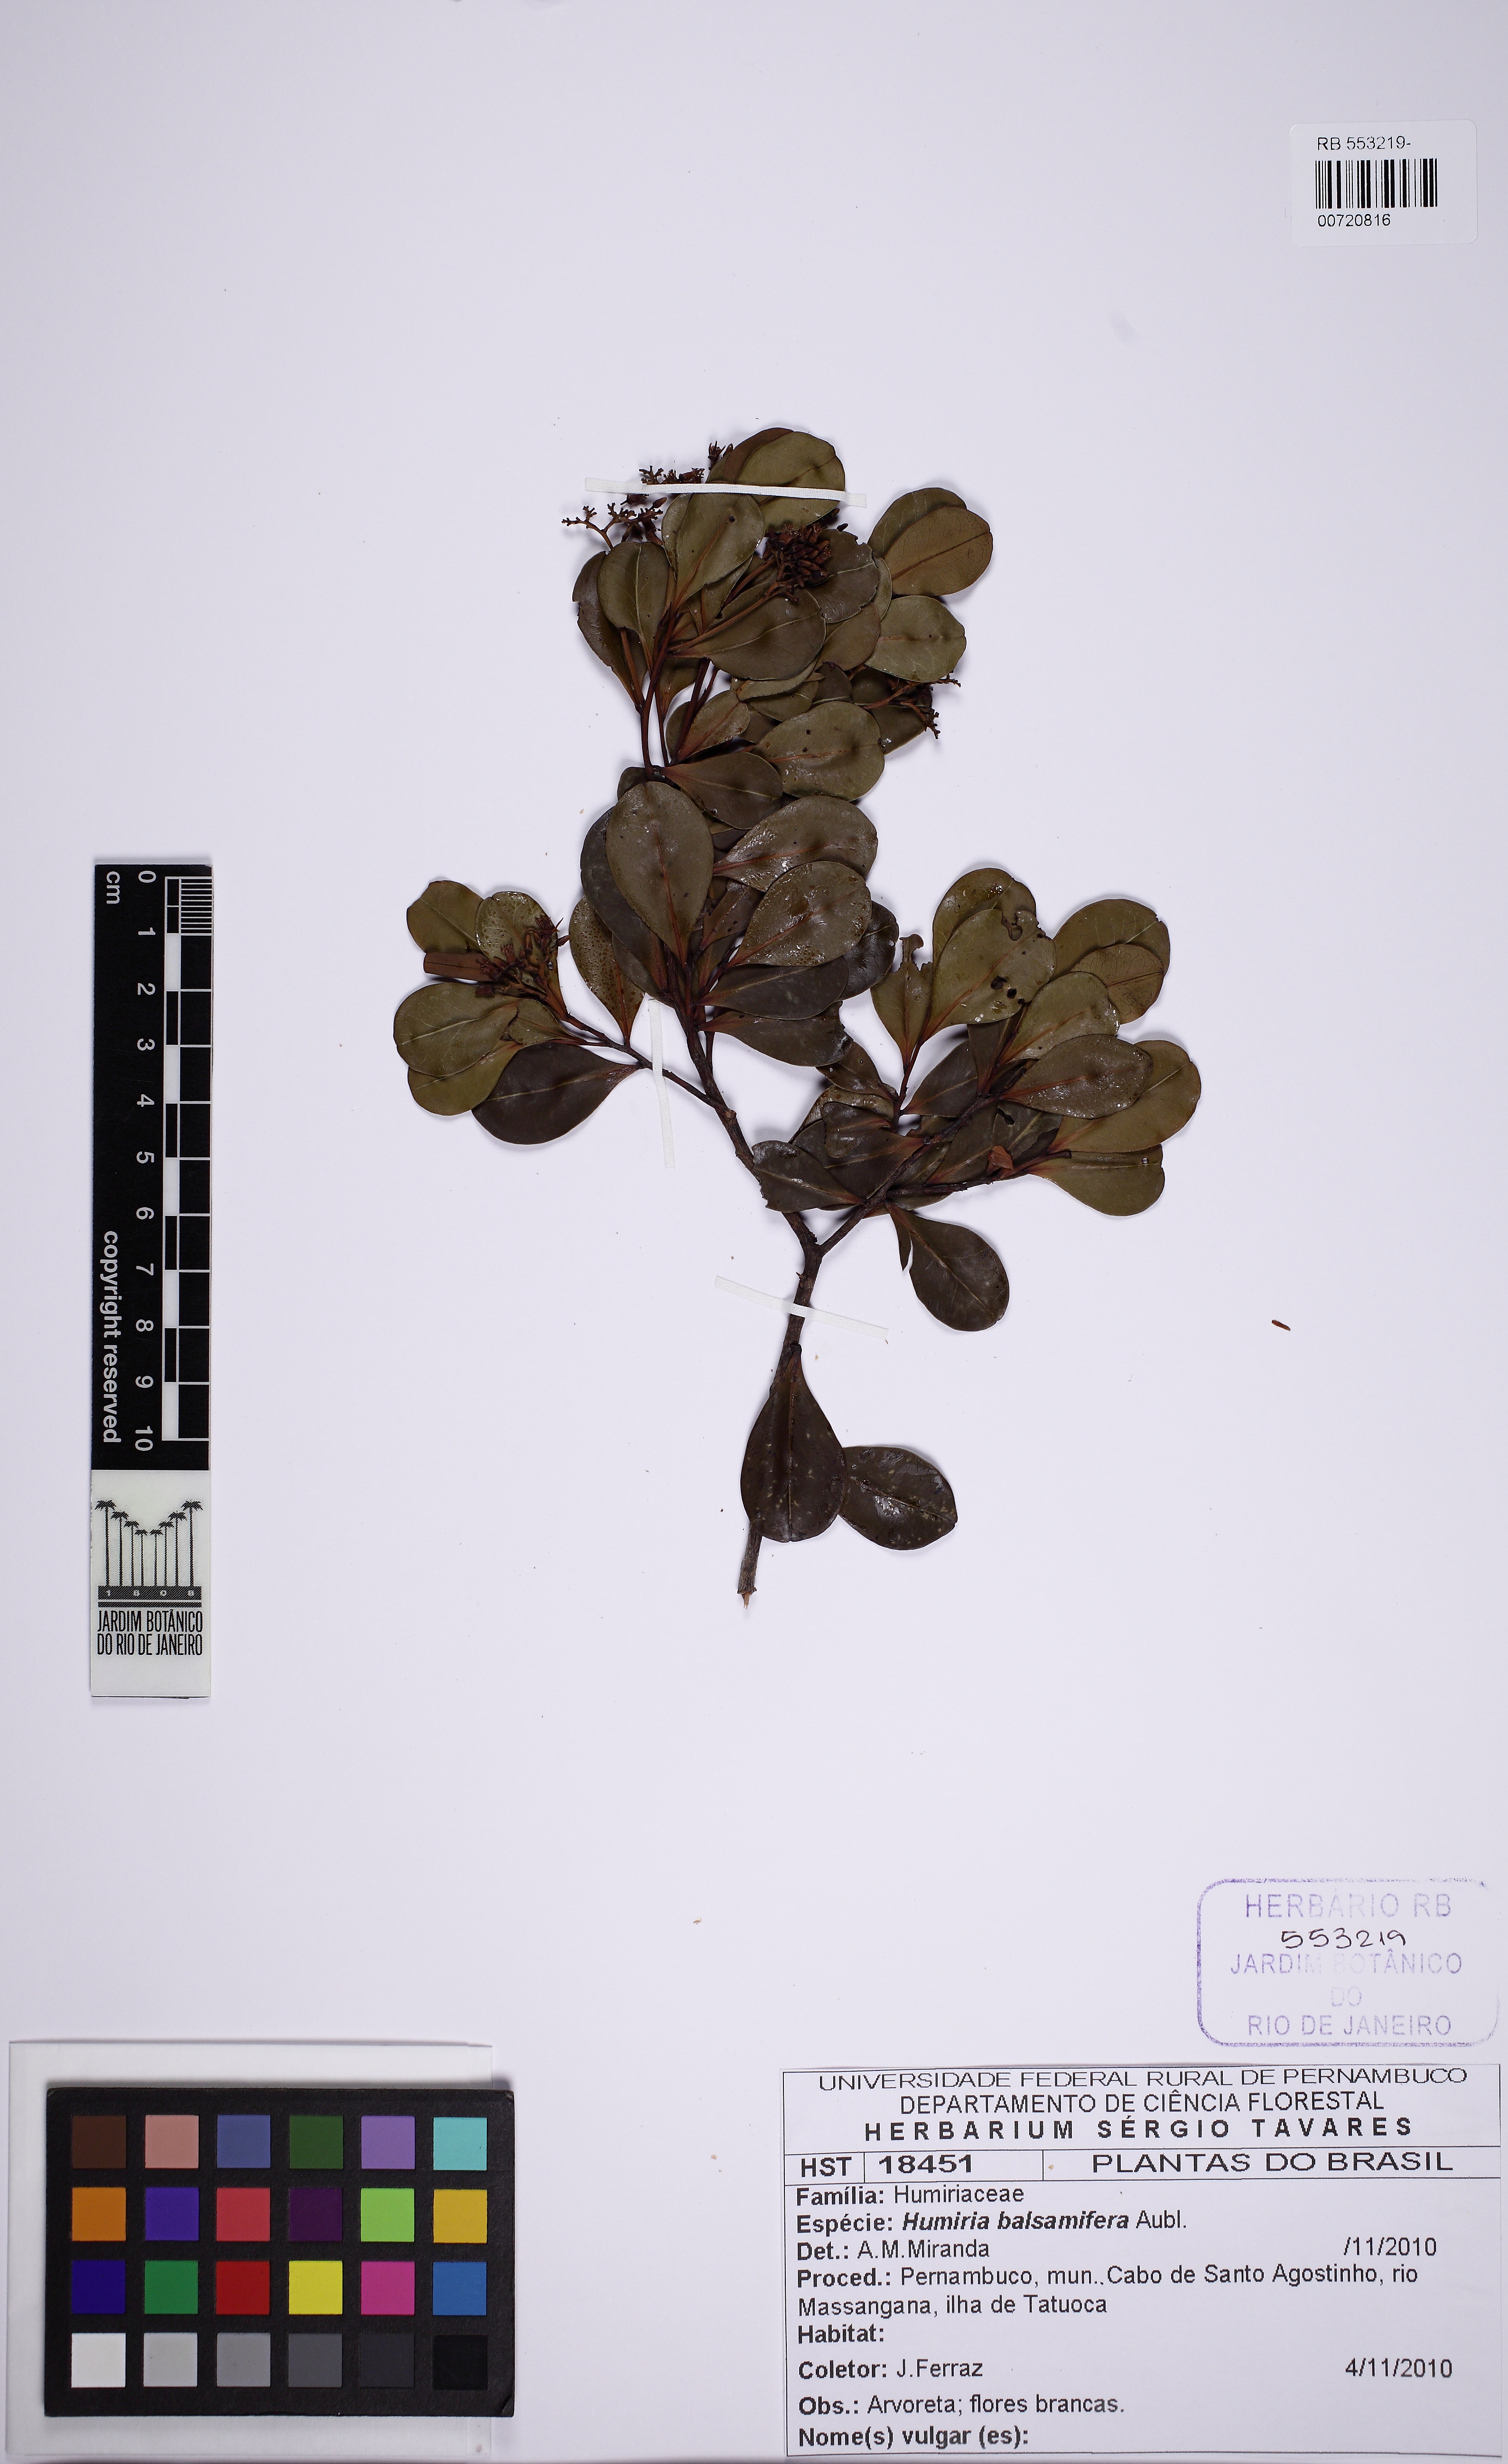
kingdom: Plantae
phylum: Tracheophyta
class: Magnoliopsida
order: Malpighiales
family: Humiriaceae
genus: Humiria
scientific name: Humiria balsamifera
